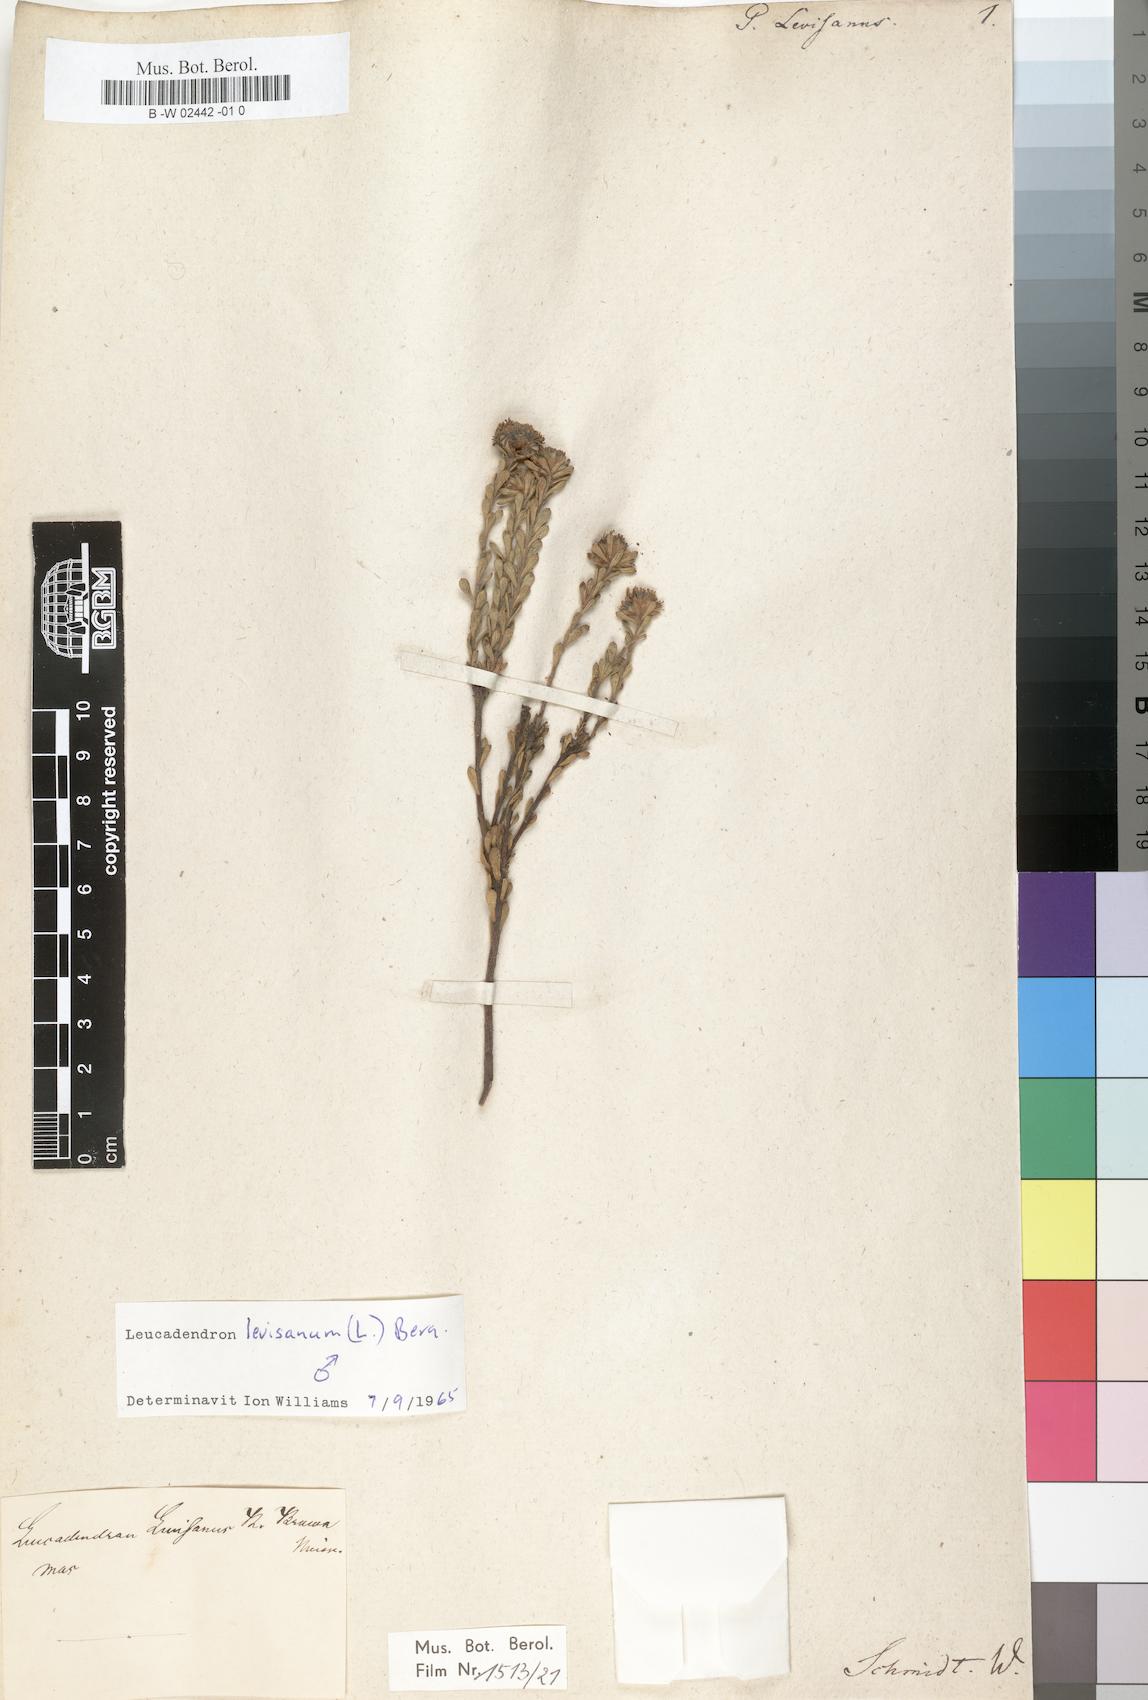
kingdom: Plantae
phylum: Tracheophyta
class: Magnoliopsida
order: Proteales
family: Proteaceae
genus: Leucadendron
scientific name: Leucadendron levisanus
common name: Cape flats conebush
